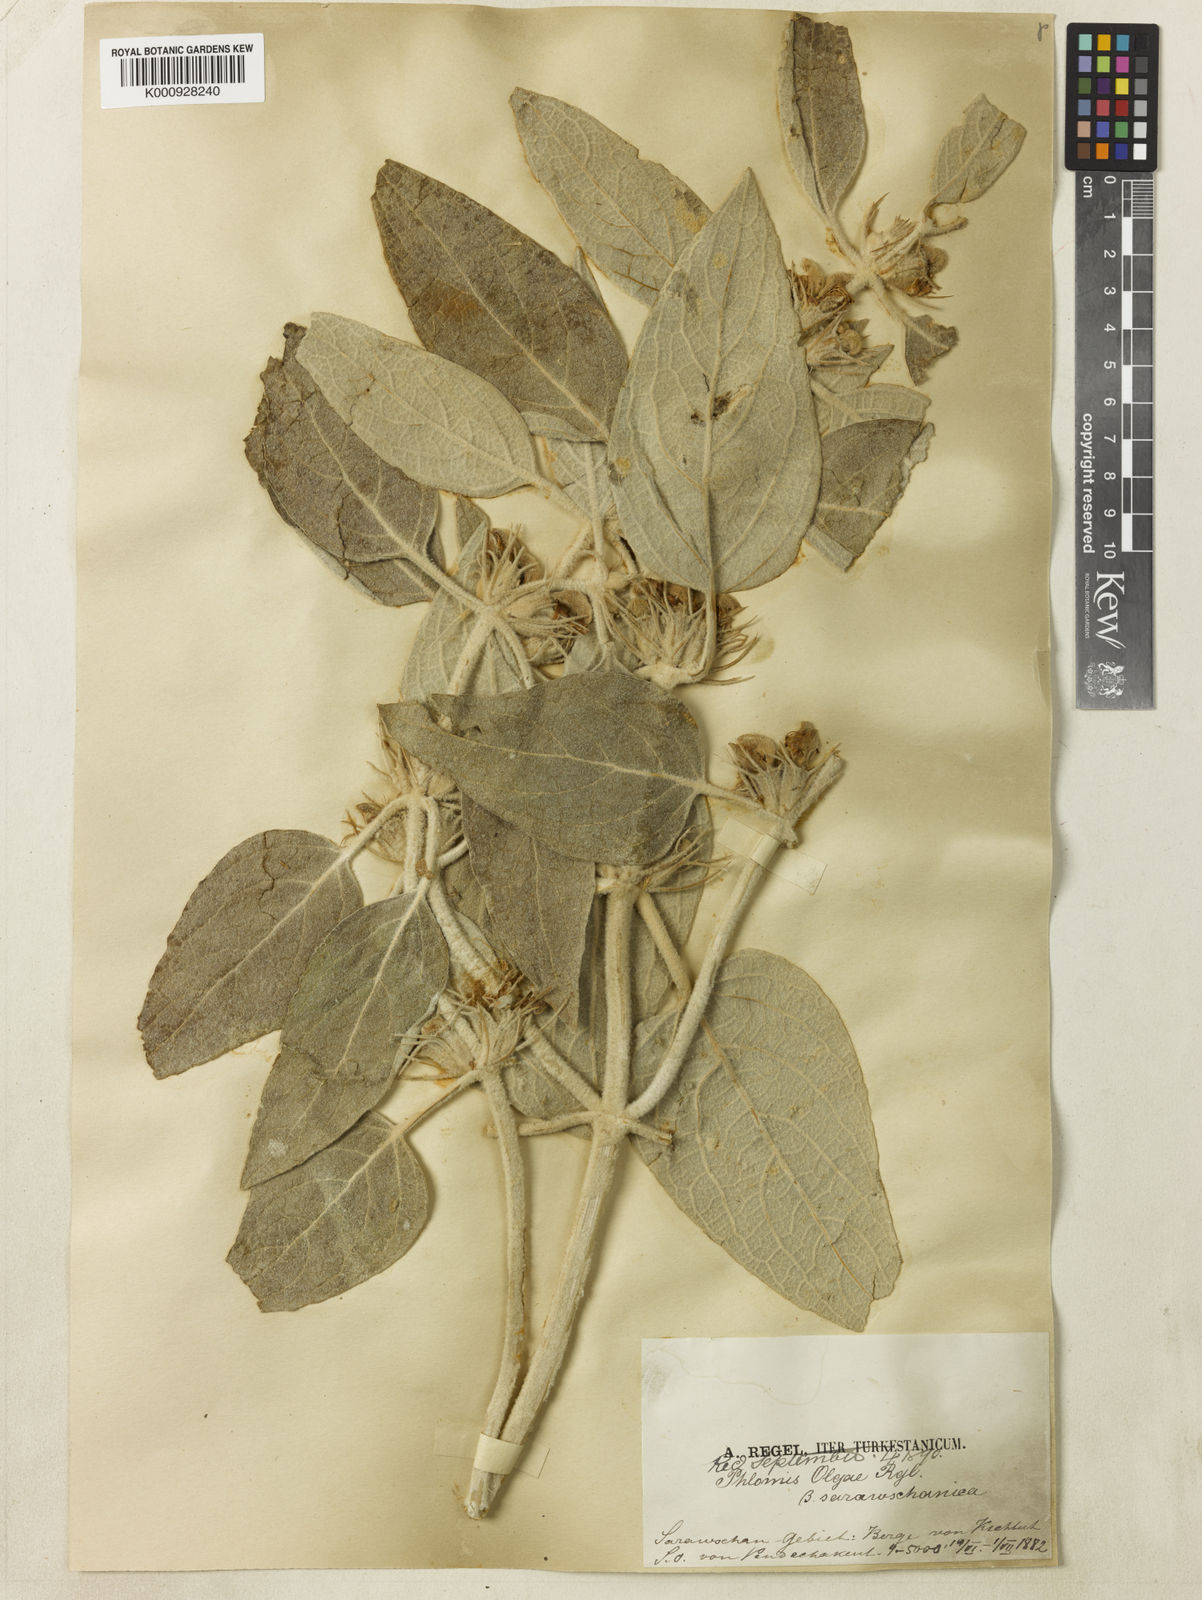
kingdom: Plantae
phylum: Tracheophyta
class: Magnoliopsida
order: Lamiales
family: Lamiaceae
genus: Phlomis
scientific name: Phlomis olgae
